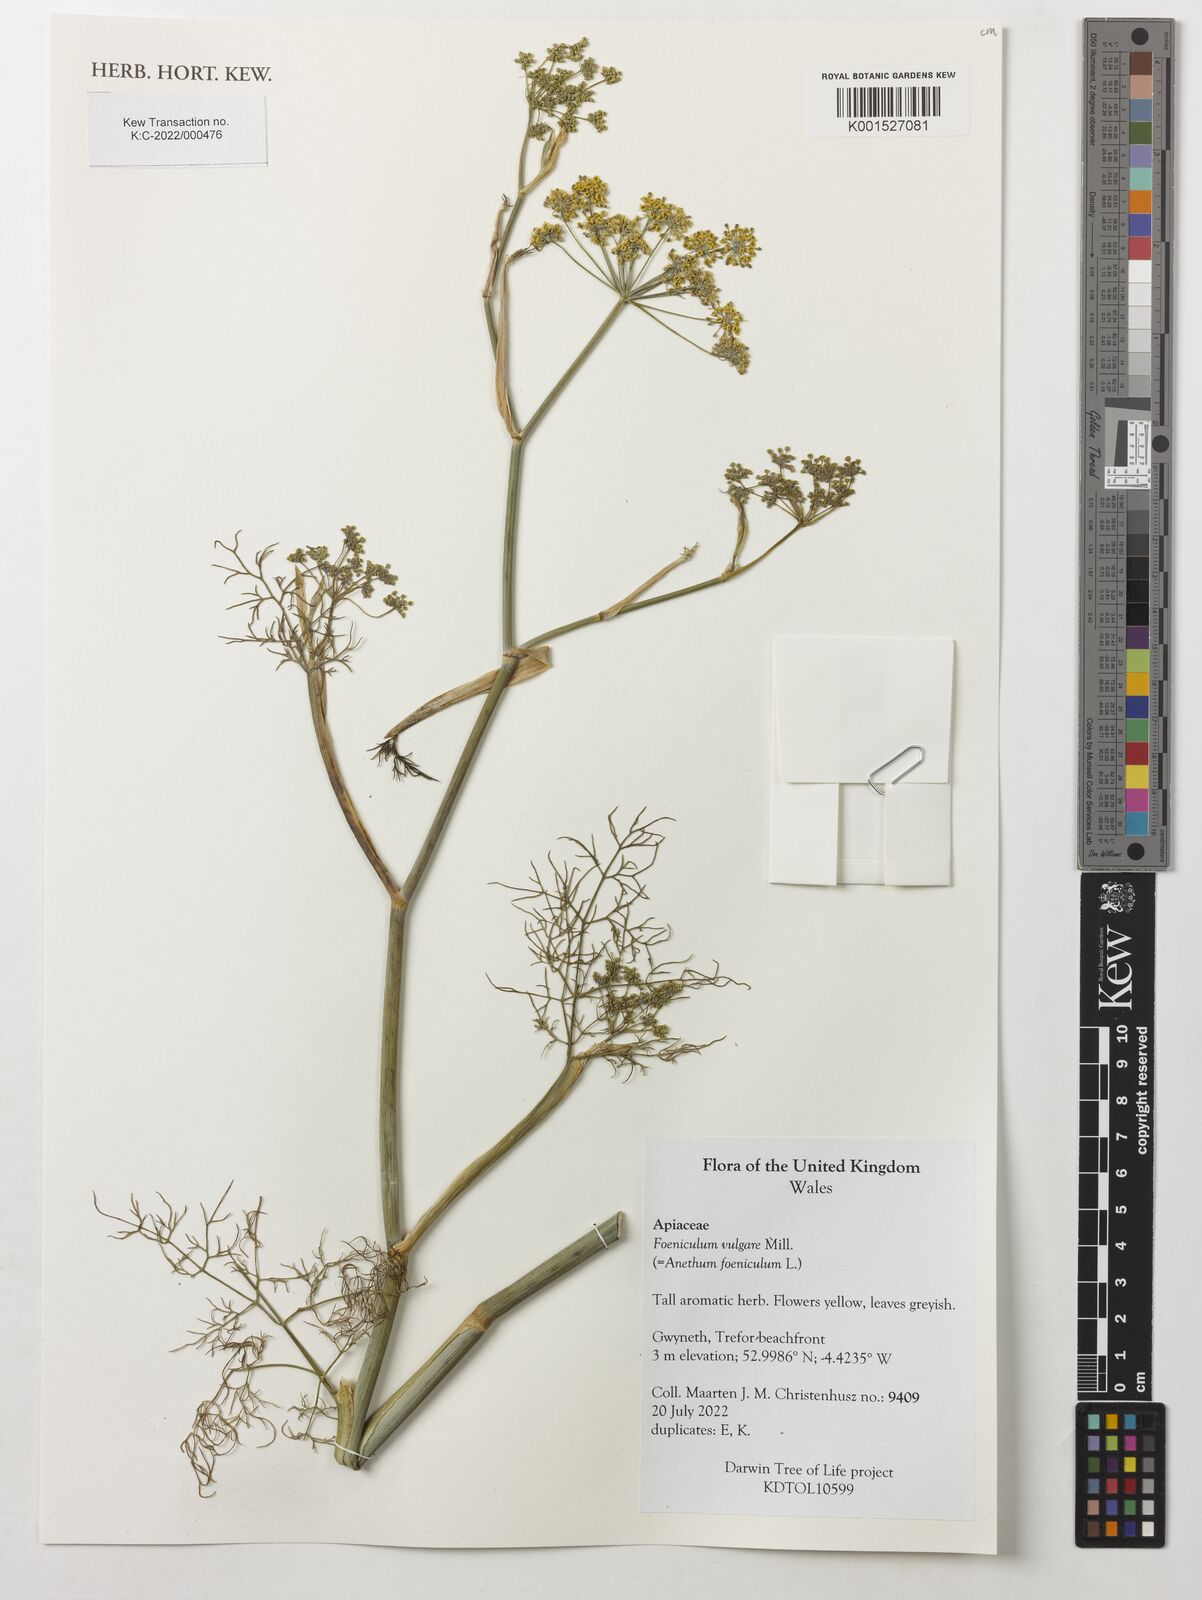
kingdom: Plantae
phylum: Tracheophyta
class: Magnoliopsida
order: Apiales
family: Apiaceae
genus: Foeniculum
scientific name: Foeniculum vulgare
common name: Fennel
